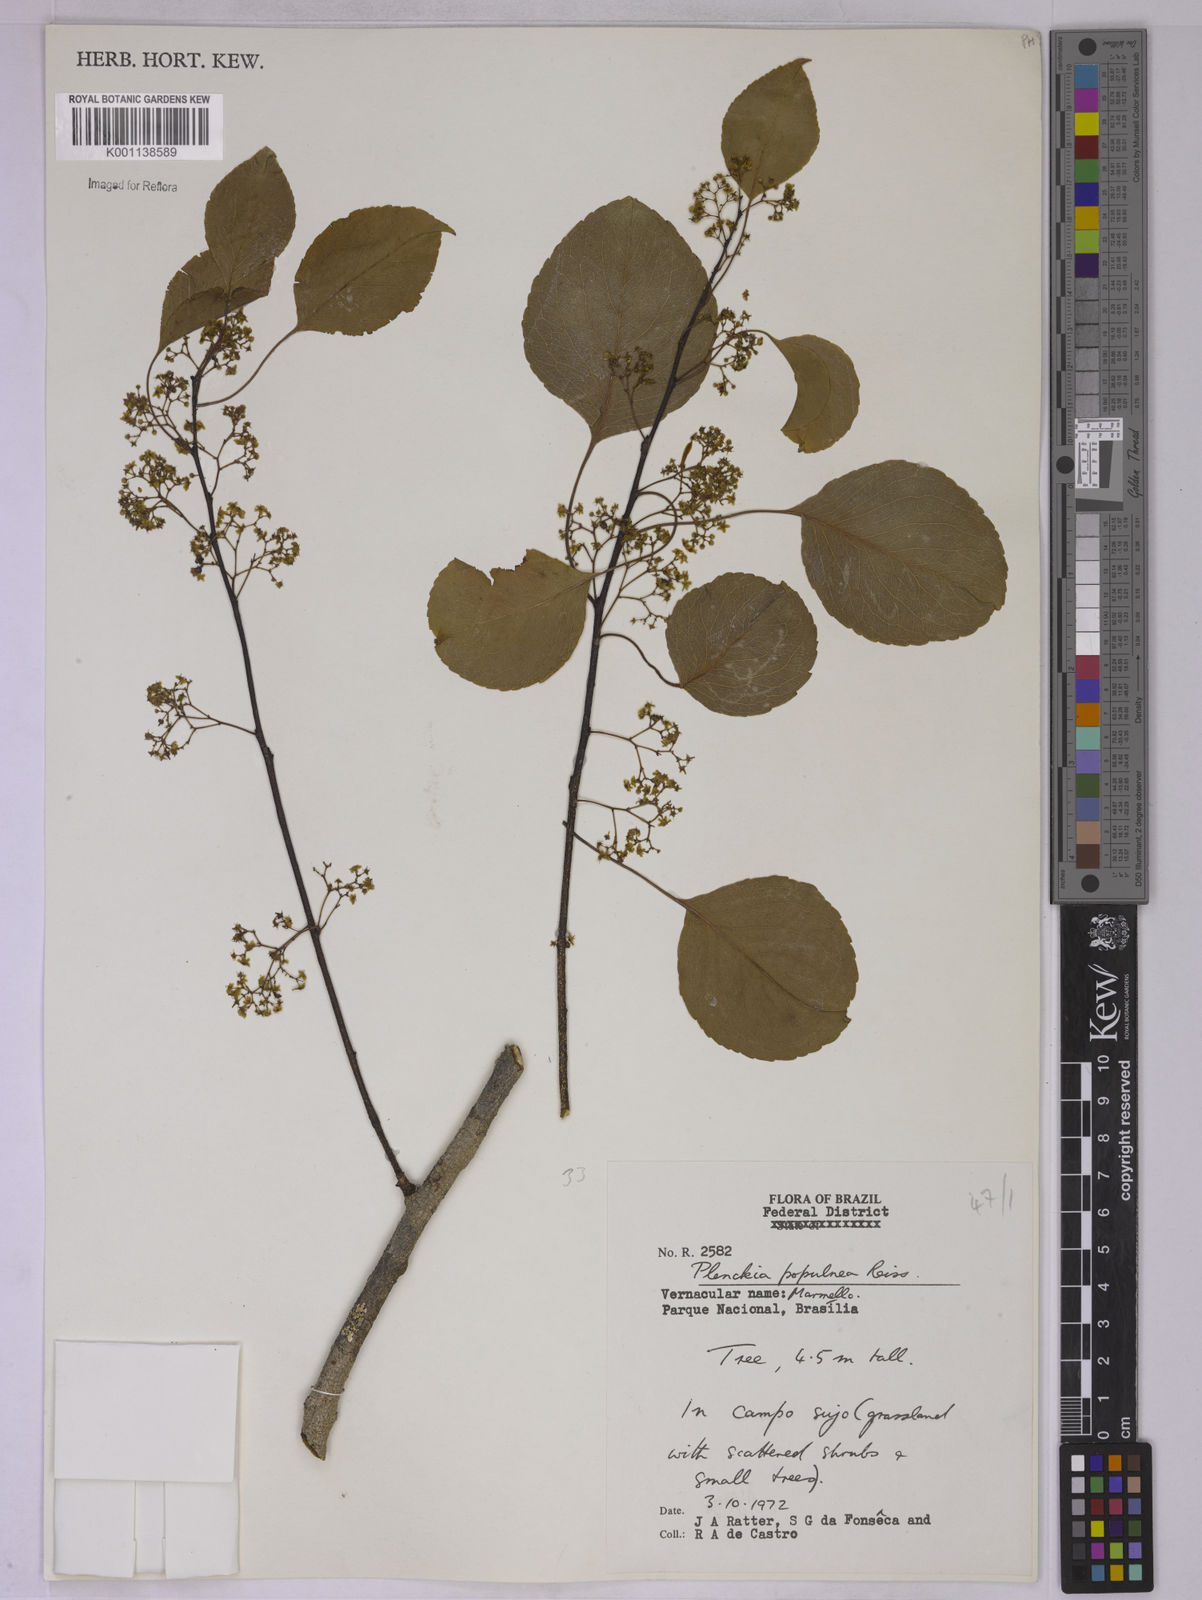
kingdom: Plantae
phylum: Tracheophyta
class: Magnoliopsida
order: Celastrales
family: Celastraceae
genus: Plenckia
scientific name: Plenckia populnea
